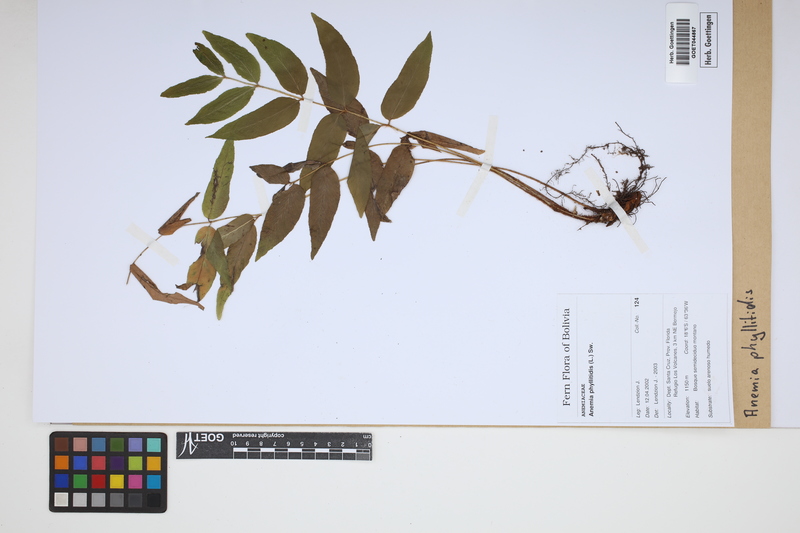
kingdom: Plantae
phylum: Tracheophyta
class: Polypodiopsida
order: Schizaeales
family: Anemiaceae
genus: Anemia
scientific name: Anemia phyllitidis
